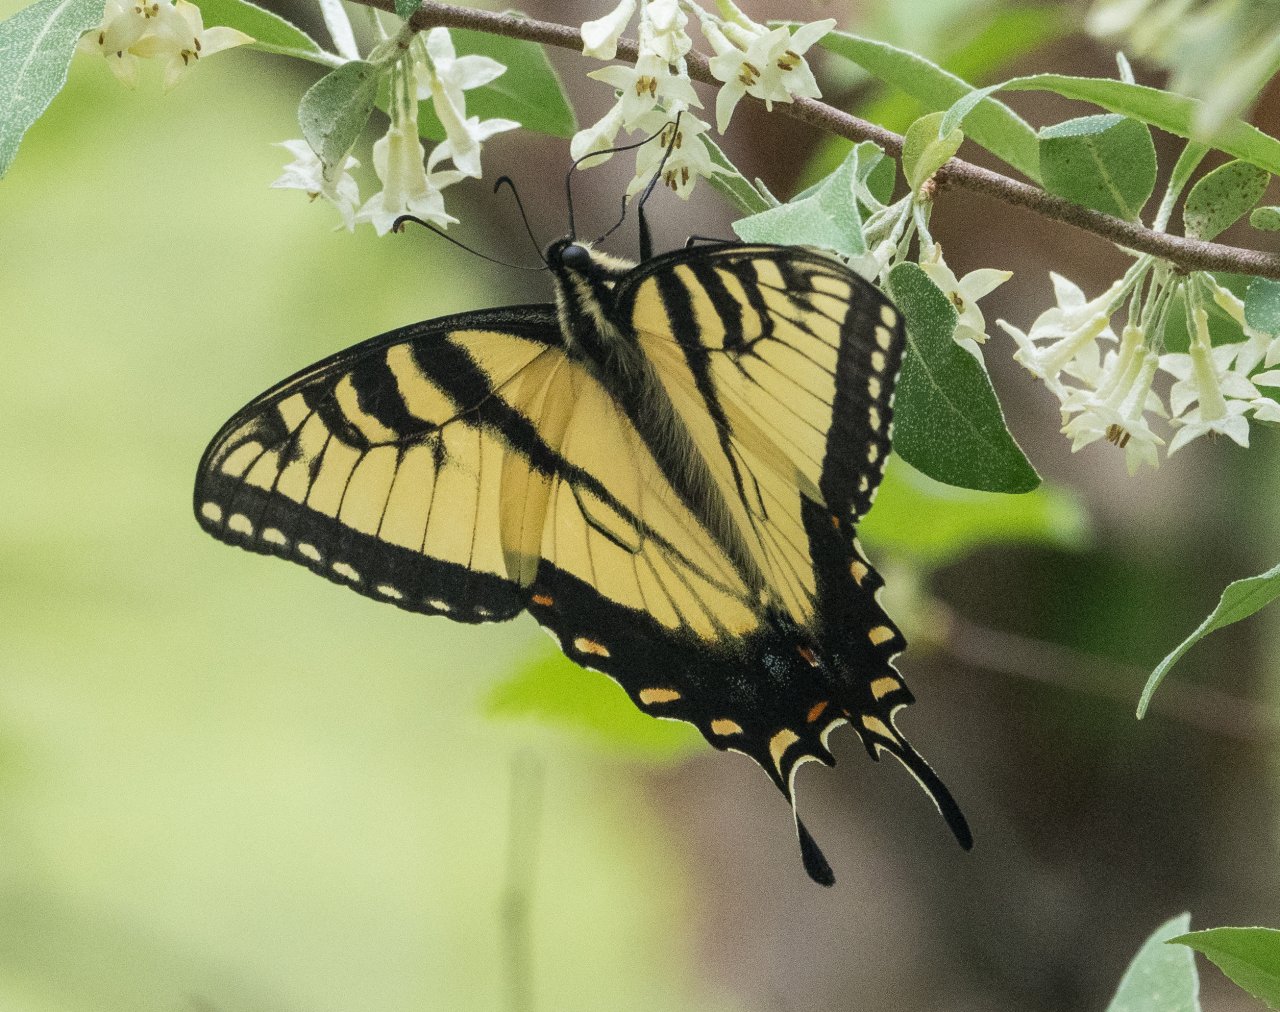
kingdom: Animalia
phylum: Arthropoda
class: Insecta
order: Lepidoptera
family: Papilionidae
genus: Pterourus
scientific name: Pterourus glaucus
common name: Eastern Tiger Swallowtail
